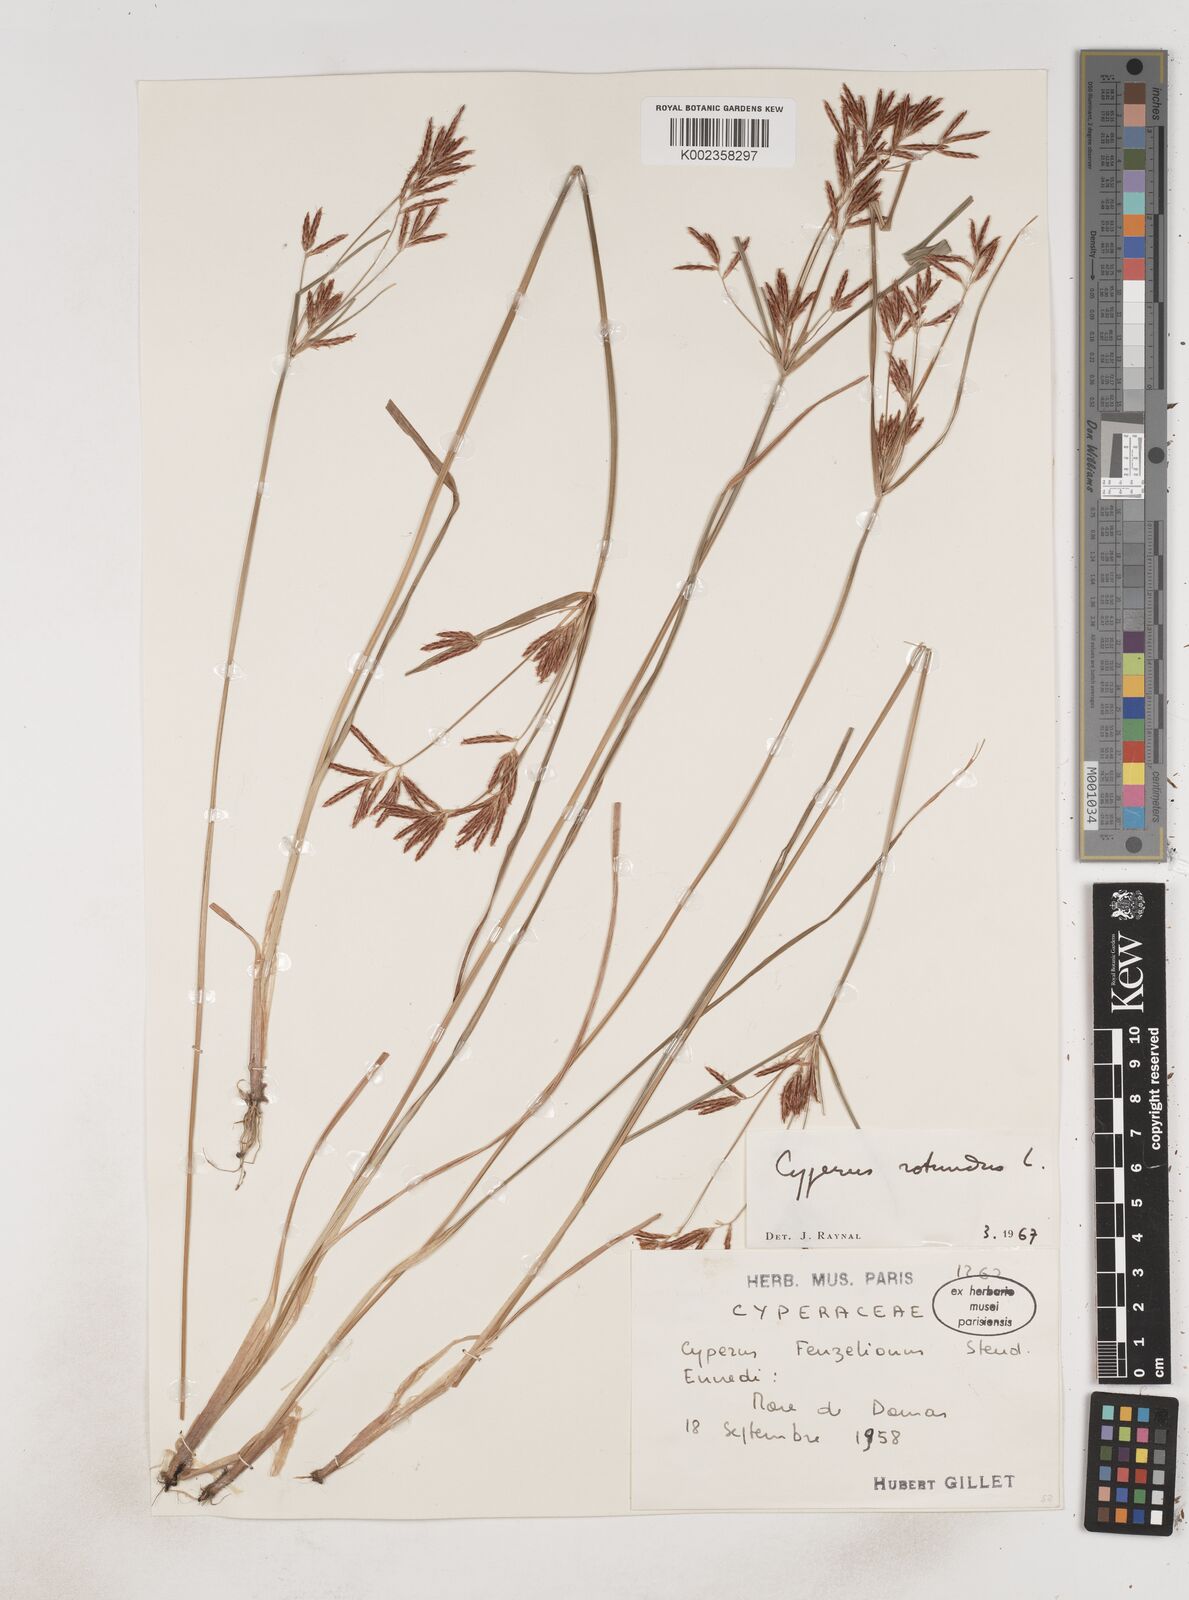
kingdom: Plantae
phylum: Tracheophyta
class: Liliopsida
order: Poales
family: Cyperaceae
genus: Cyperus
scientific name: Cyperus rotundus
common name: Nutgrass
